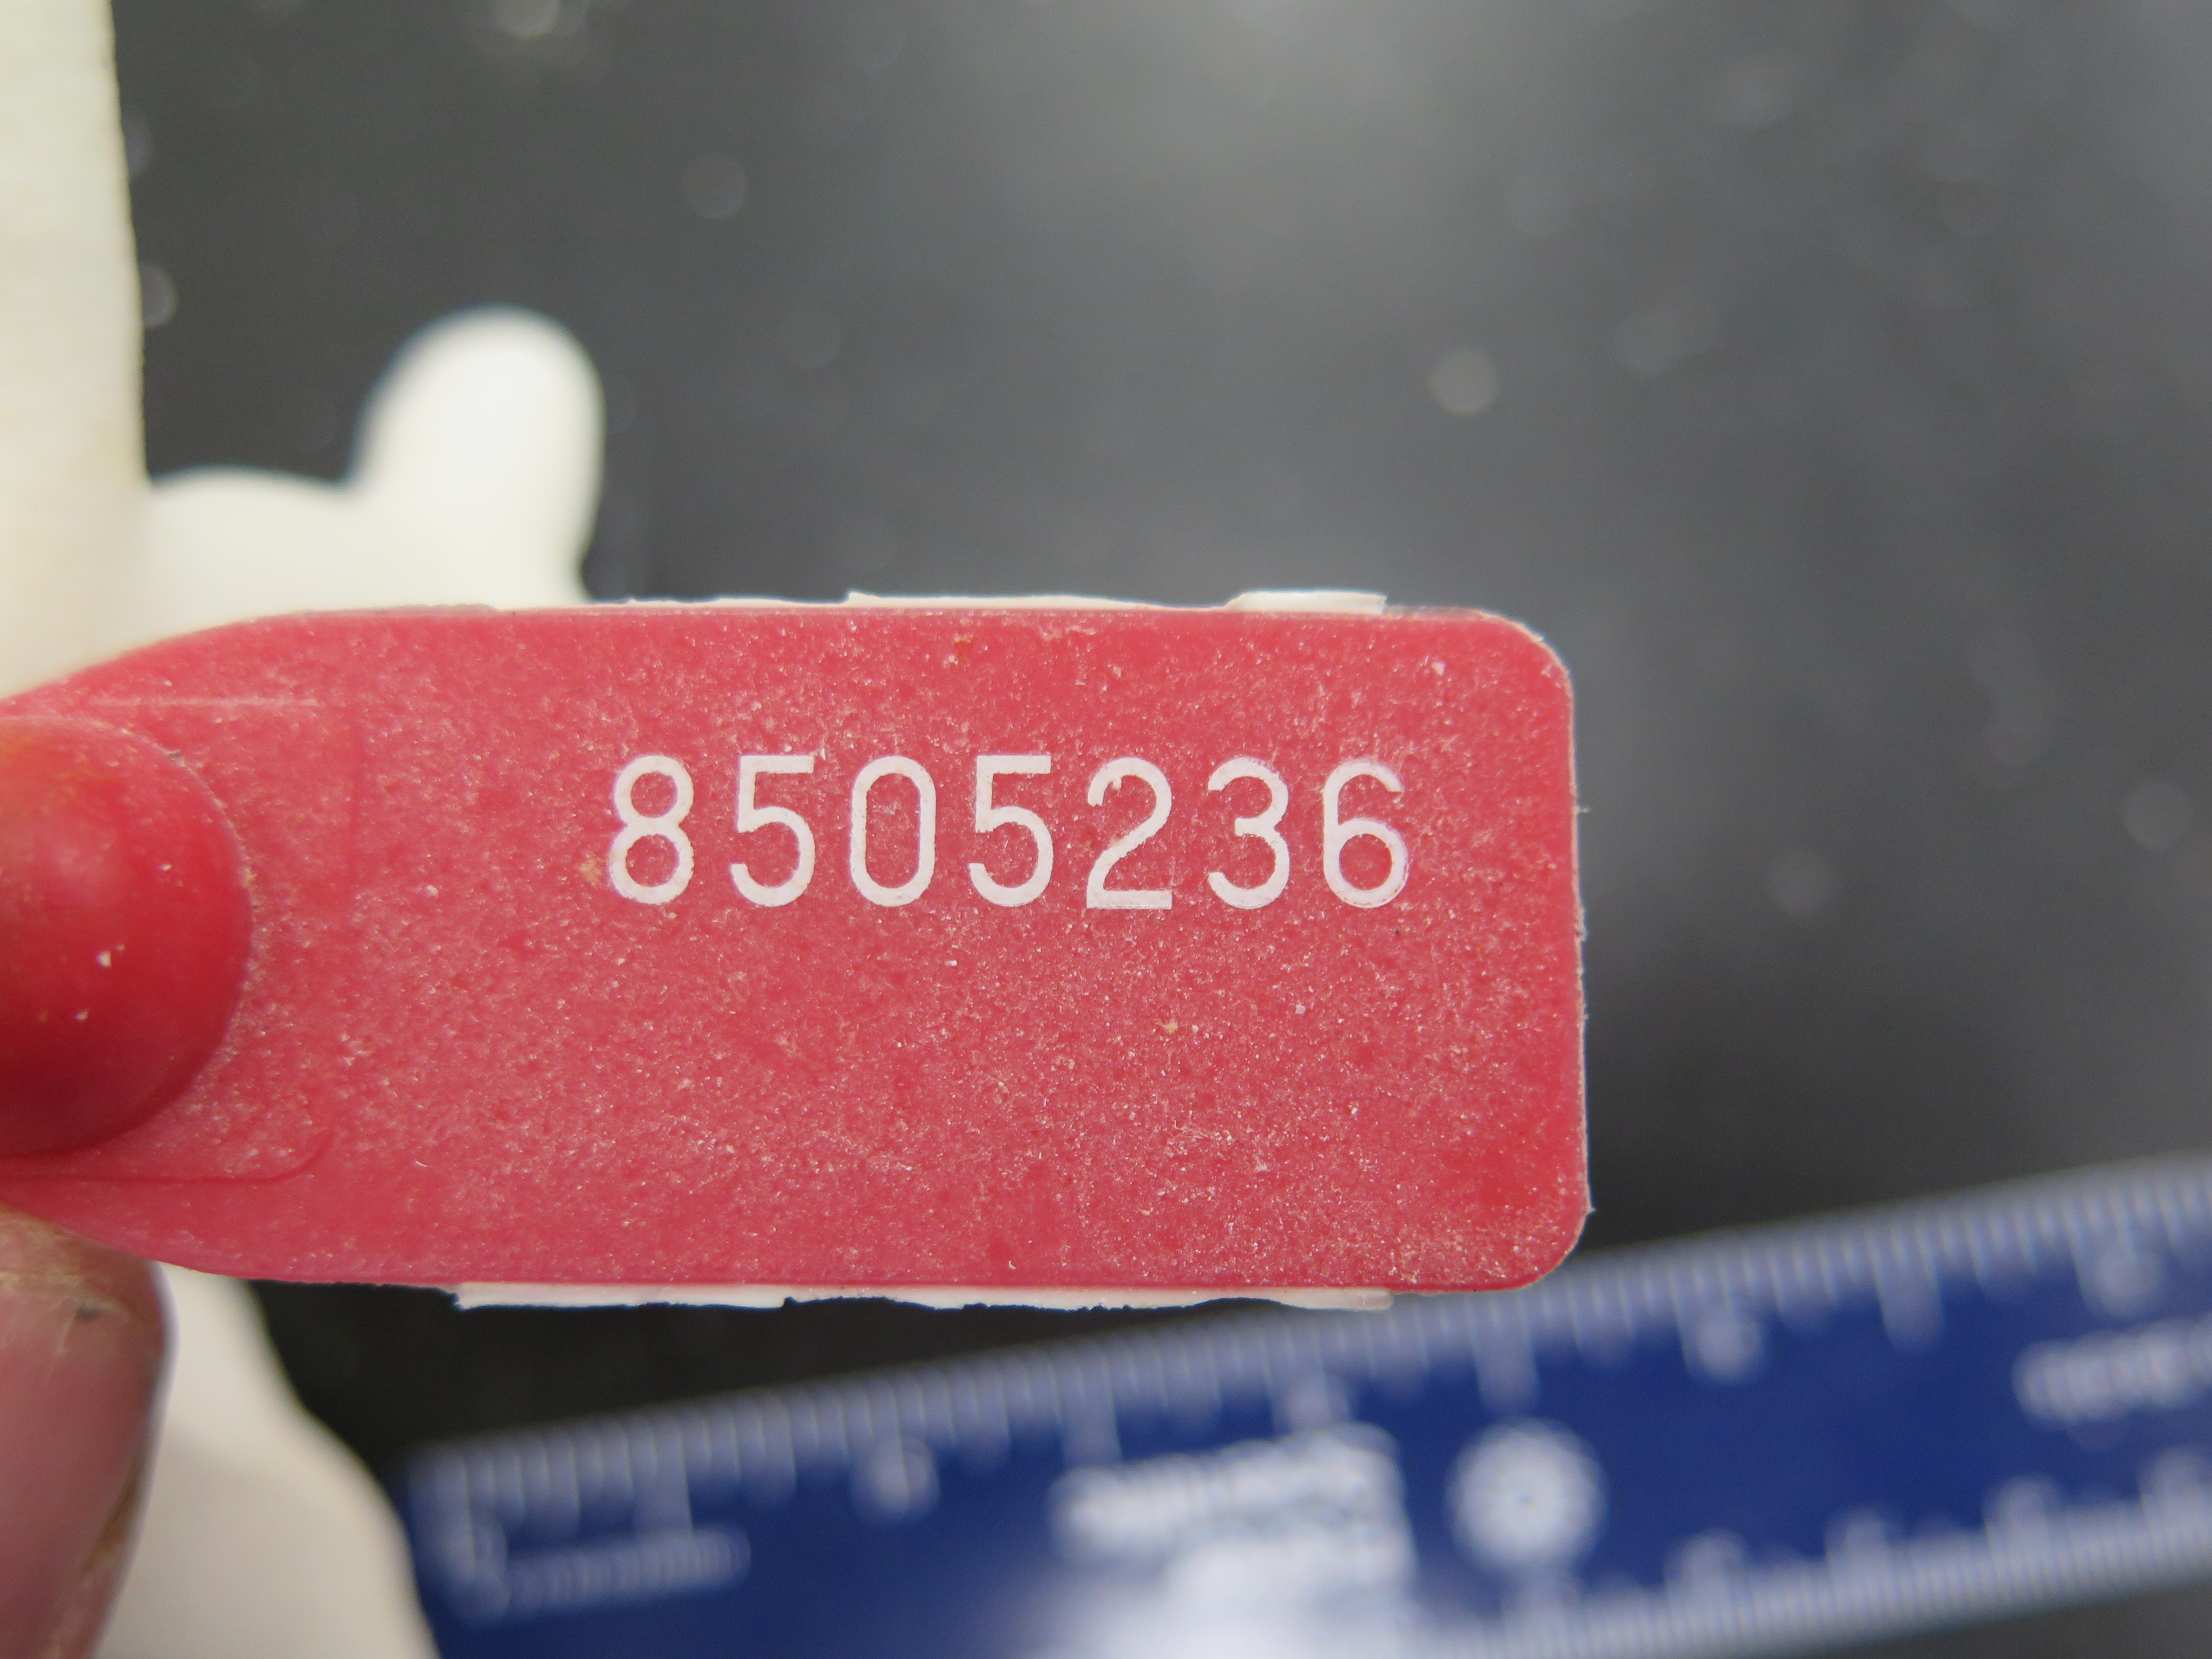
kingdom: Animalia
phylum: Cnidaria
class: Anthozoa
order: Scleractinia
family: Poritidae
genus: Porites
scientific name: Porites divaricata
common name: Thin finger coral
